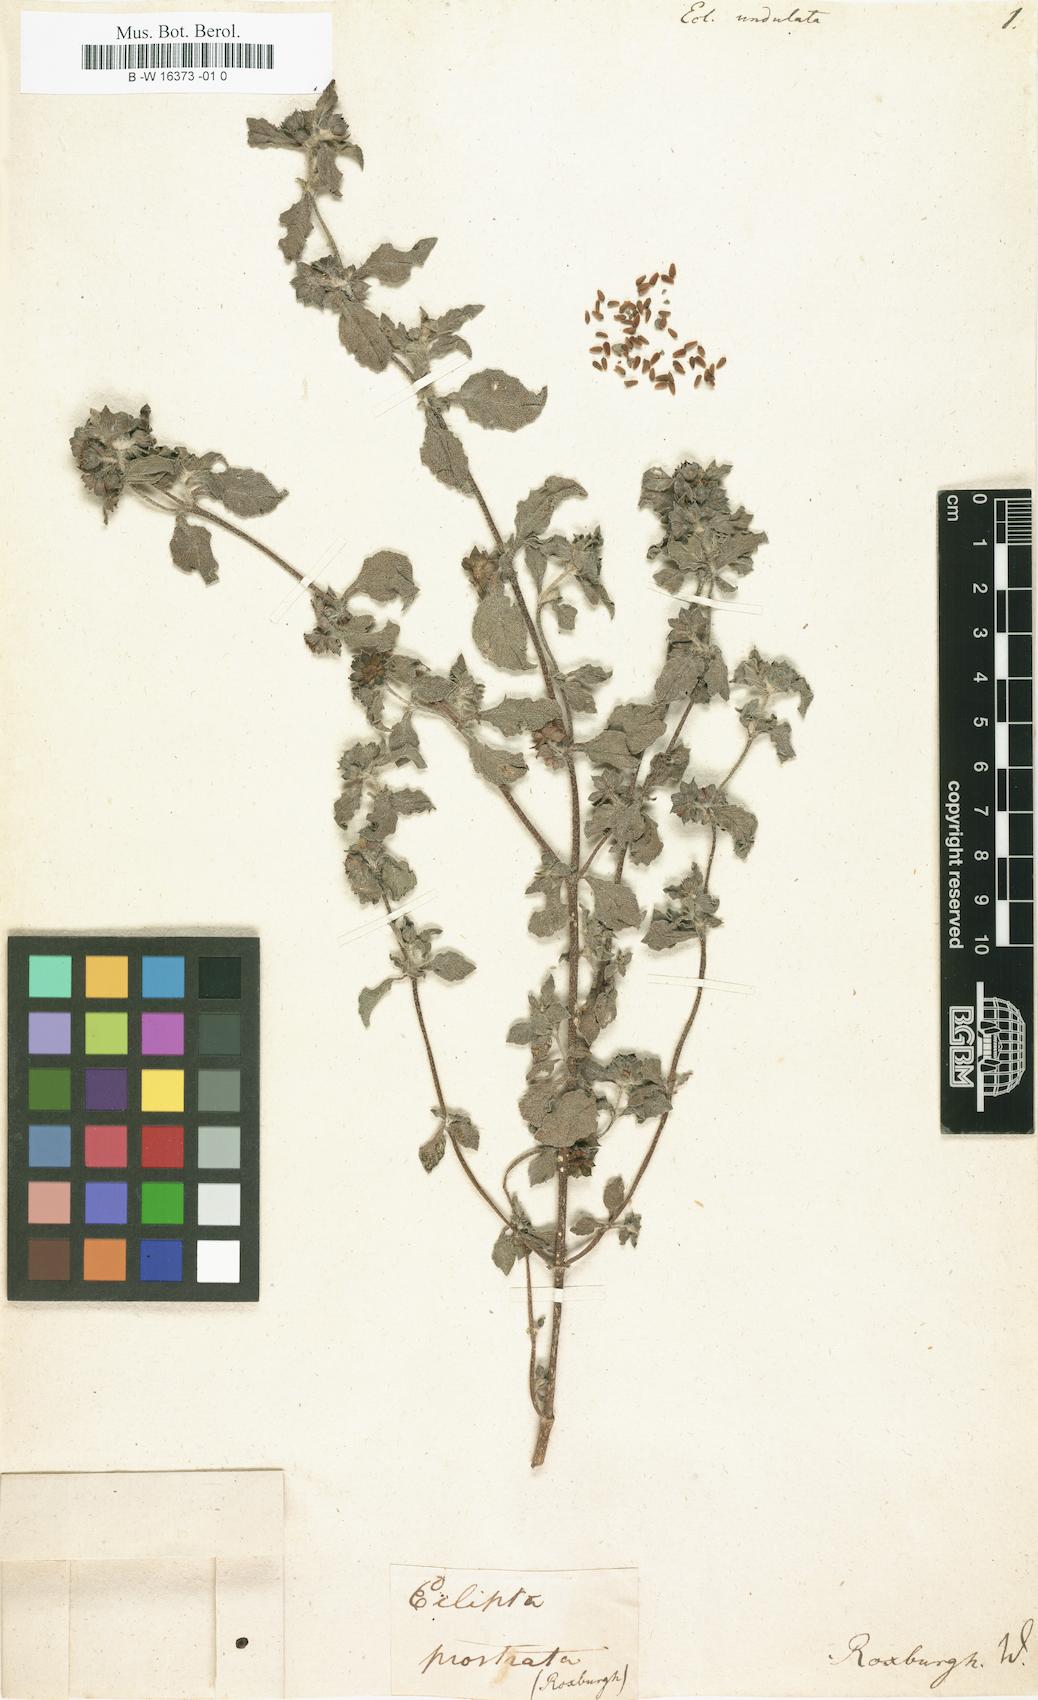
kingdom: Plantae
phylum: Tracheophyta
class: Magnoliopsida
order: Asterales
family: Asteraceae
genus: Eleutheranthera
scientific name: Eleutheranthera ruderalis
